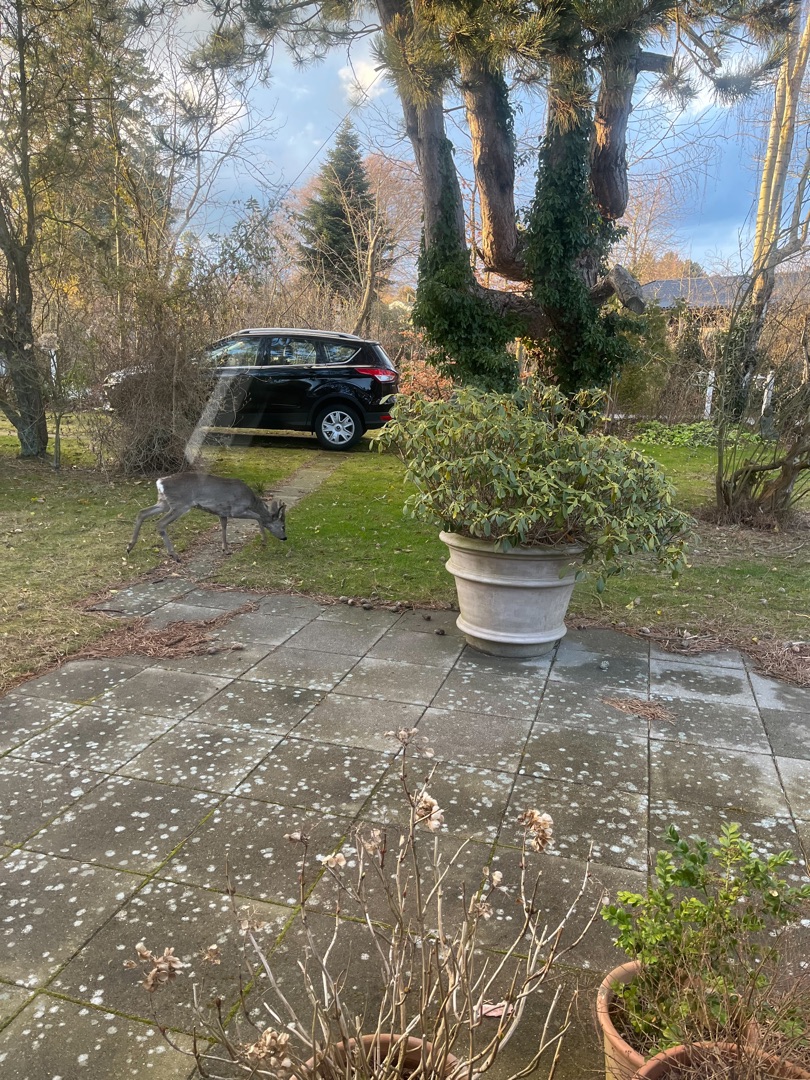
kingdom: Animalia
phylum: Chordata
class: Mammalia
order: Artiodactyla
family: Cervidae
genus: Capreolus
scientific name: Capreolus capreolus
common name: Rådyr
